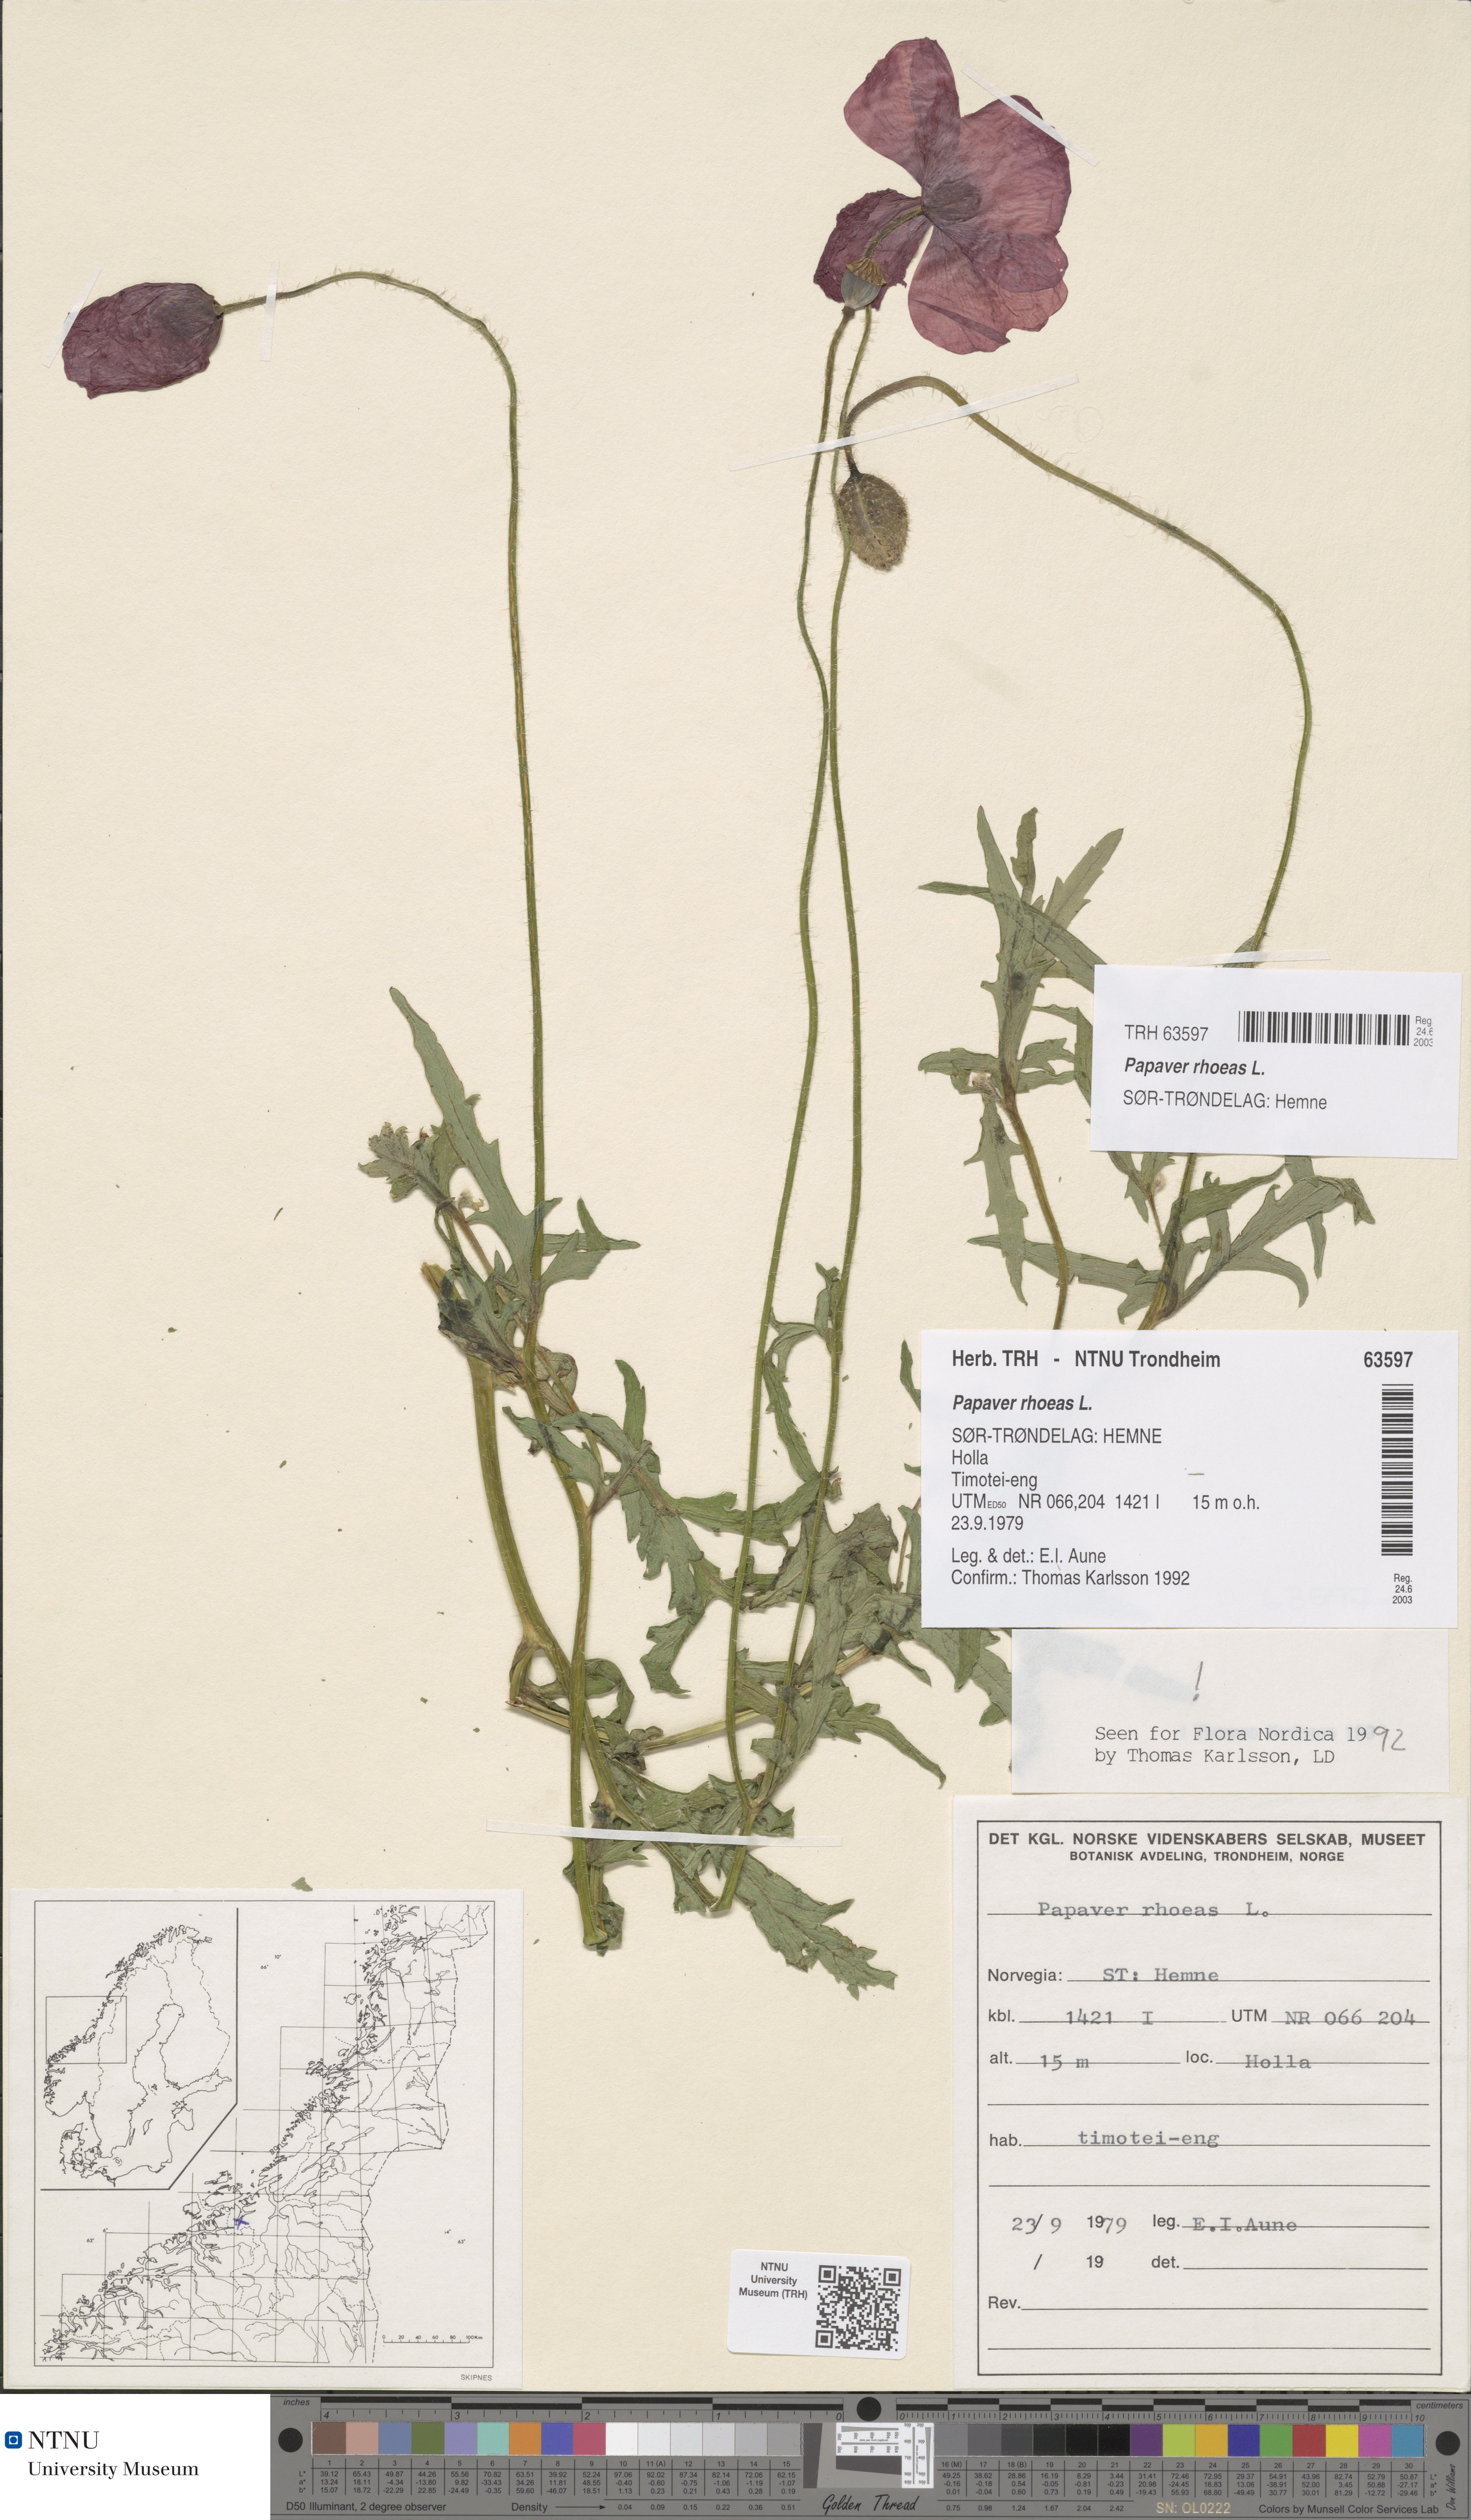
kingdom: Plantae
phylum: Tracheophyta
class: Magnoliopsida
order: Ranunculales
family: Papaveraceae
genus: Papaver
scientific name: Papaver rhoeas
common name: Corn poppy
